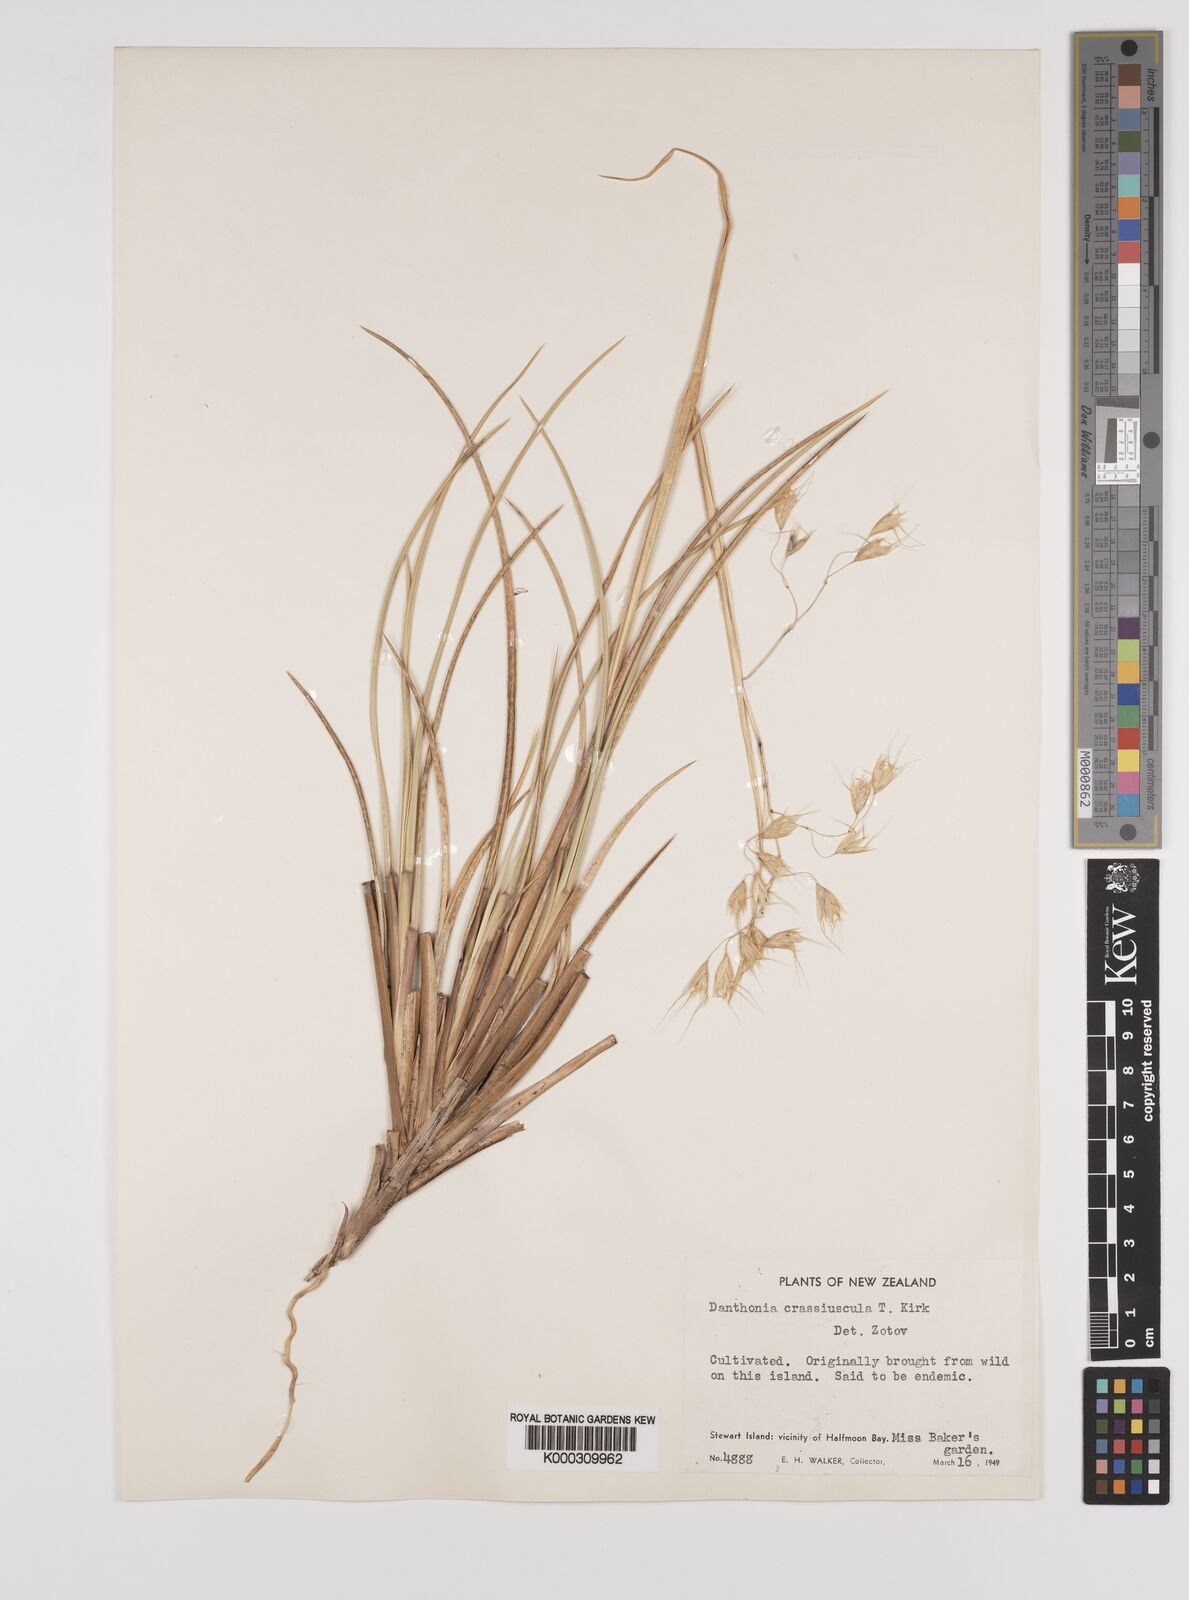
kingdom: Plantae
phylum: Tracheophyta
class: Liliopsida
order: Poales
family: Poaceae
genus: Chionochloa
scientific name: Chionochloa crassiuscula
